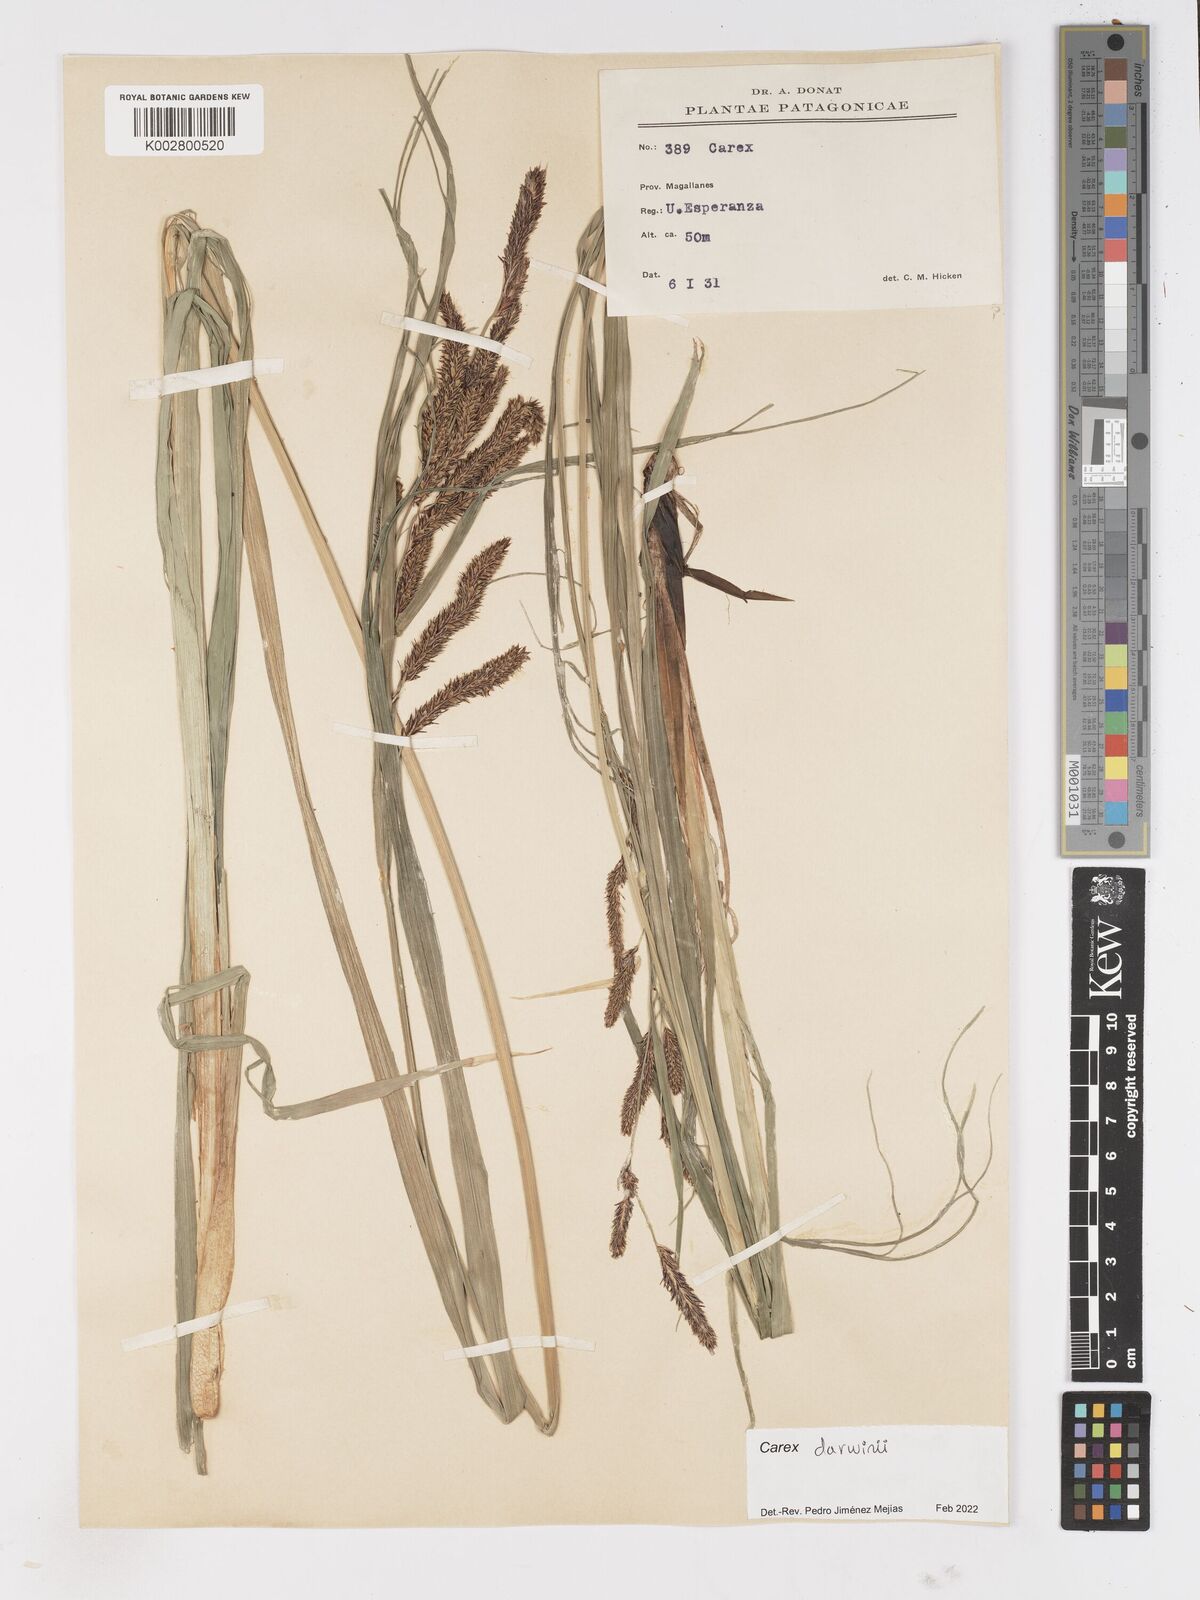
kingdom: Plantae
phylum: Tracheophyta
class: Liliopsida
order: Poales
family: Cyperaceae
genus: Carex
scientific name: Carex darwinii
